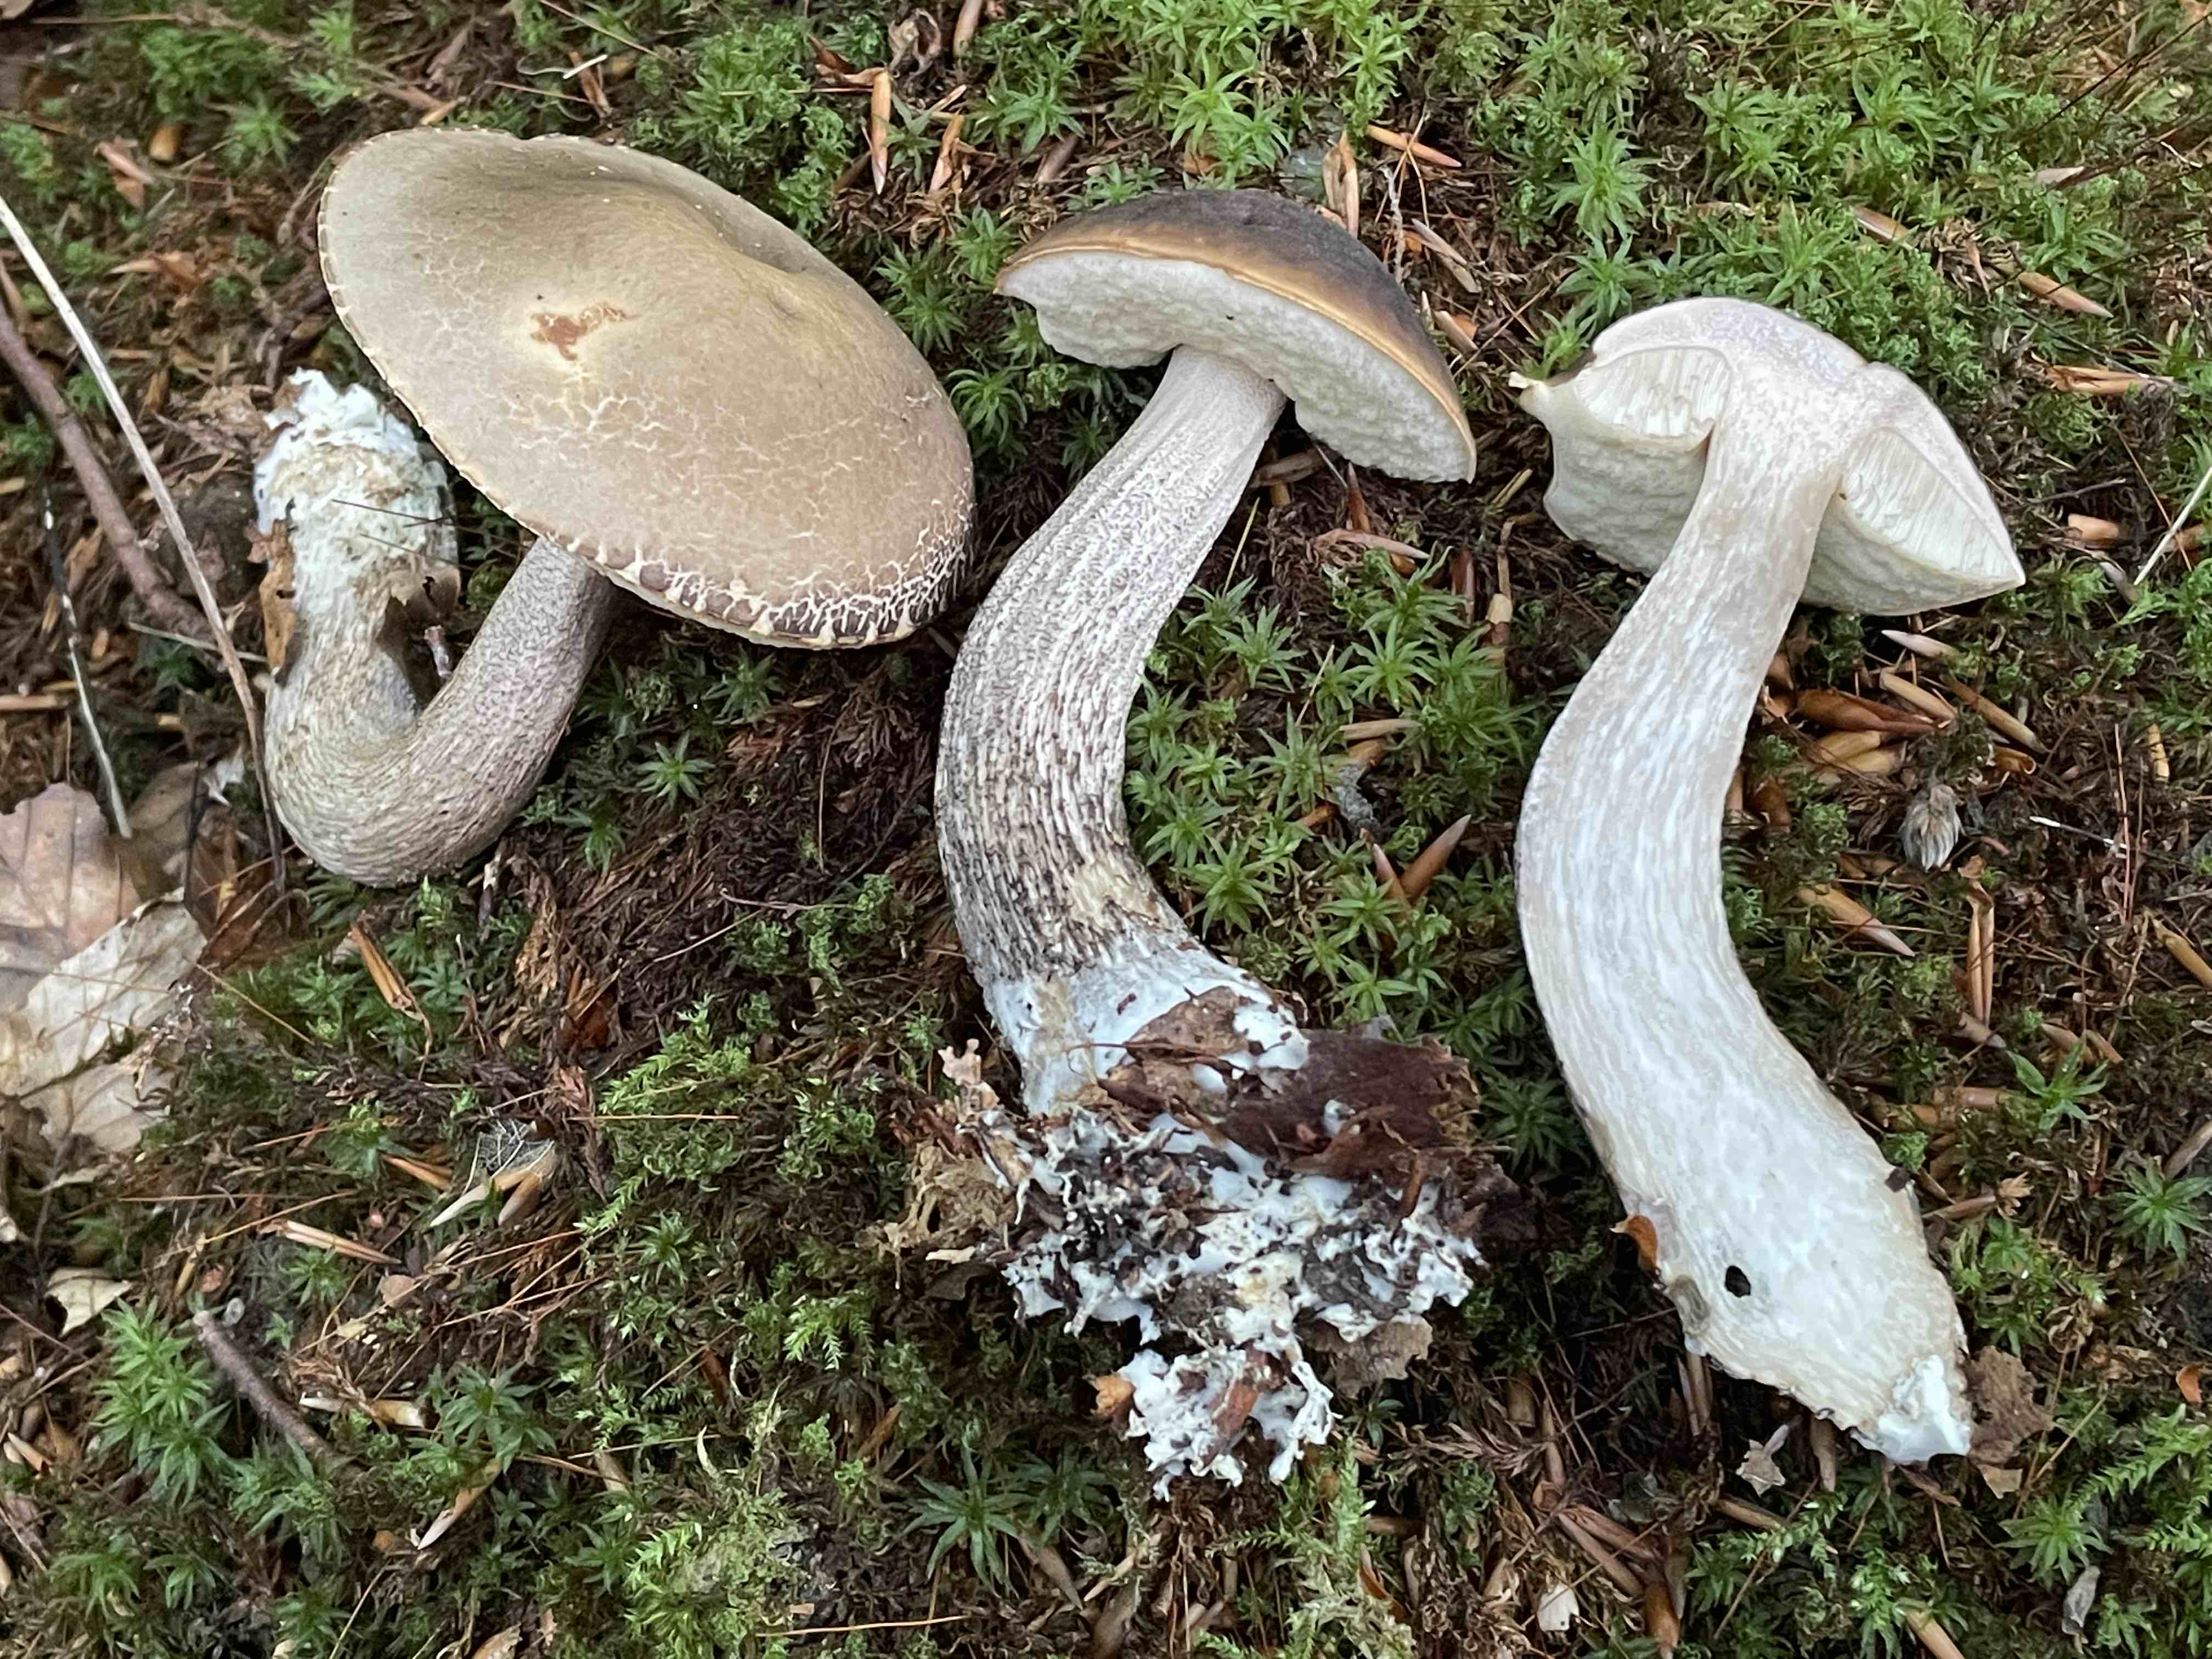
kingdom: Fungi
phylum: Basidiomycota
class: Agaricomycetes
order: Boletales
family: Boletaceae
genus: Leccinellum
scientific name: Leccinellum pseudoscabrum
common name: avnbøg-skælrørhat
